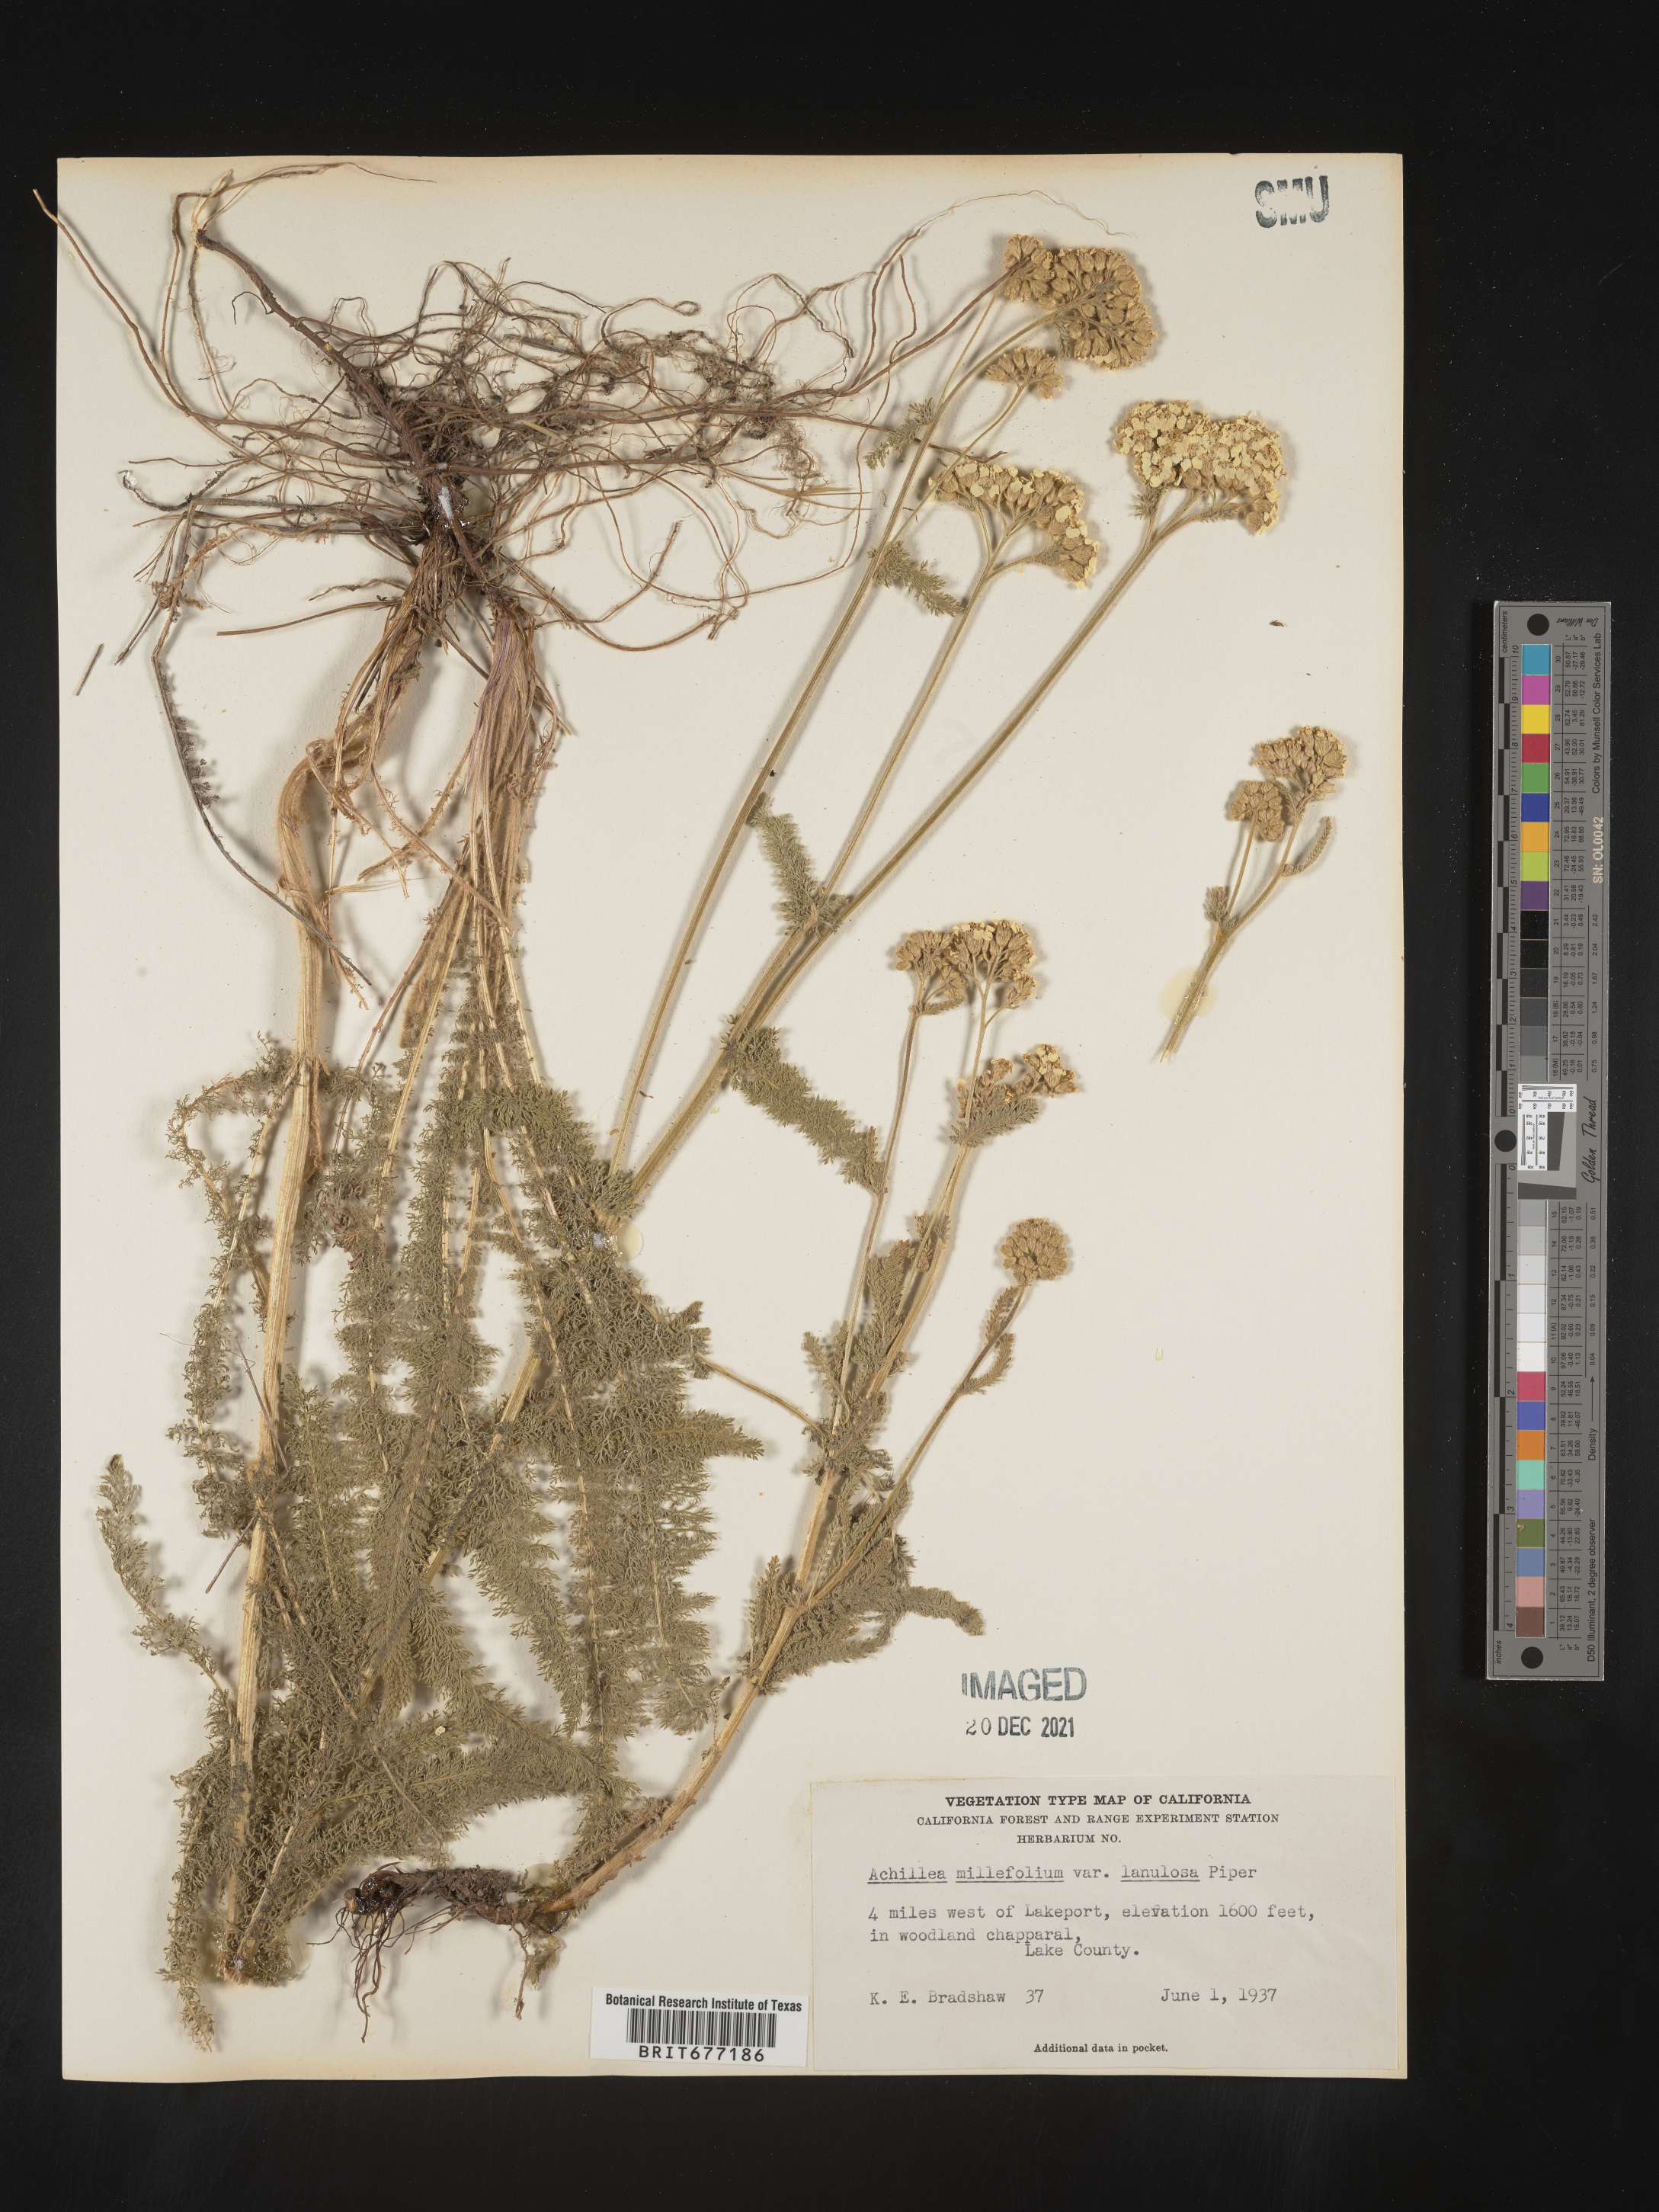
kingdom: Plantae
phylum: Tracheophyta
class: Magnoliopsida
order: Asterales
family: Asteraceae
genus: Achillea
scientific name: Achillea millefolium
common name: Yarrow
